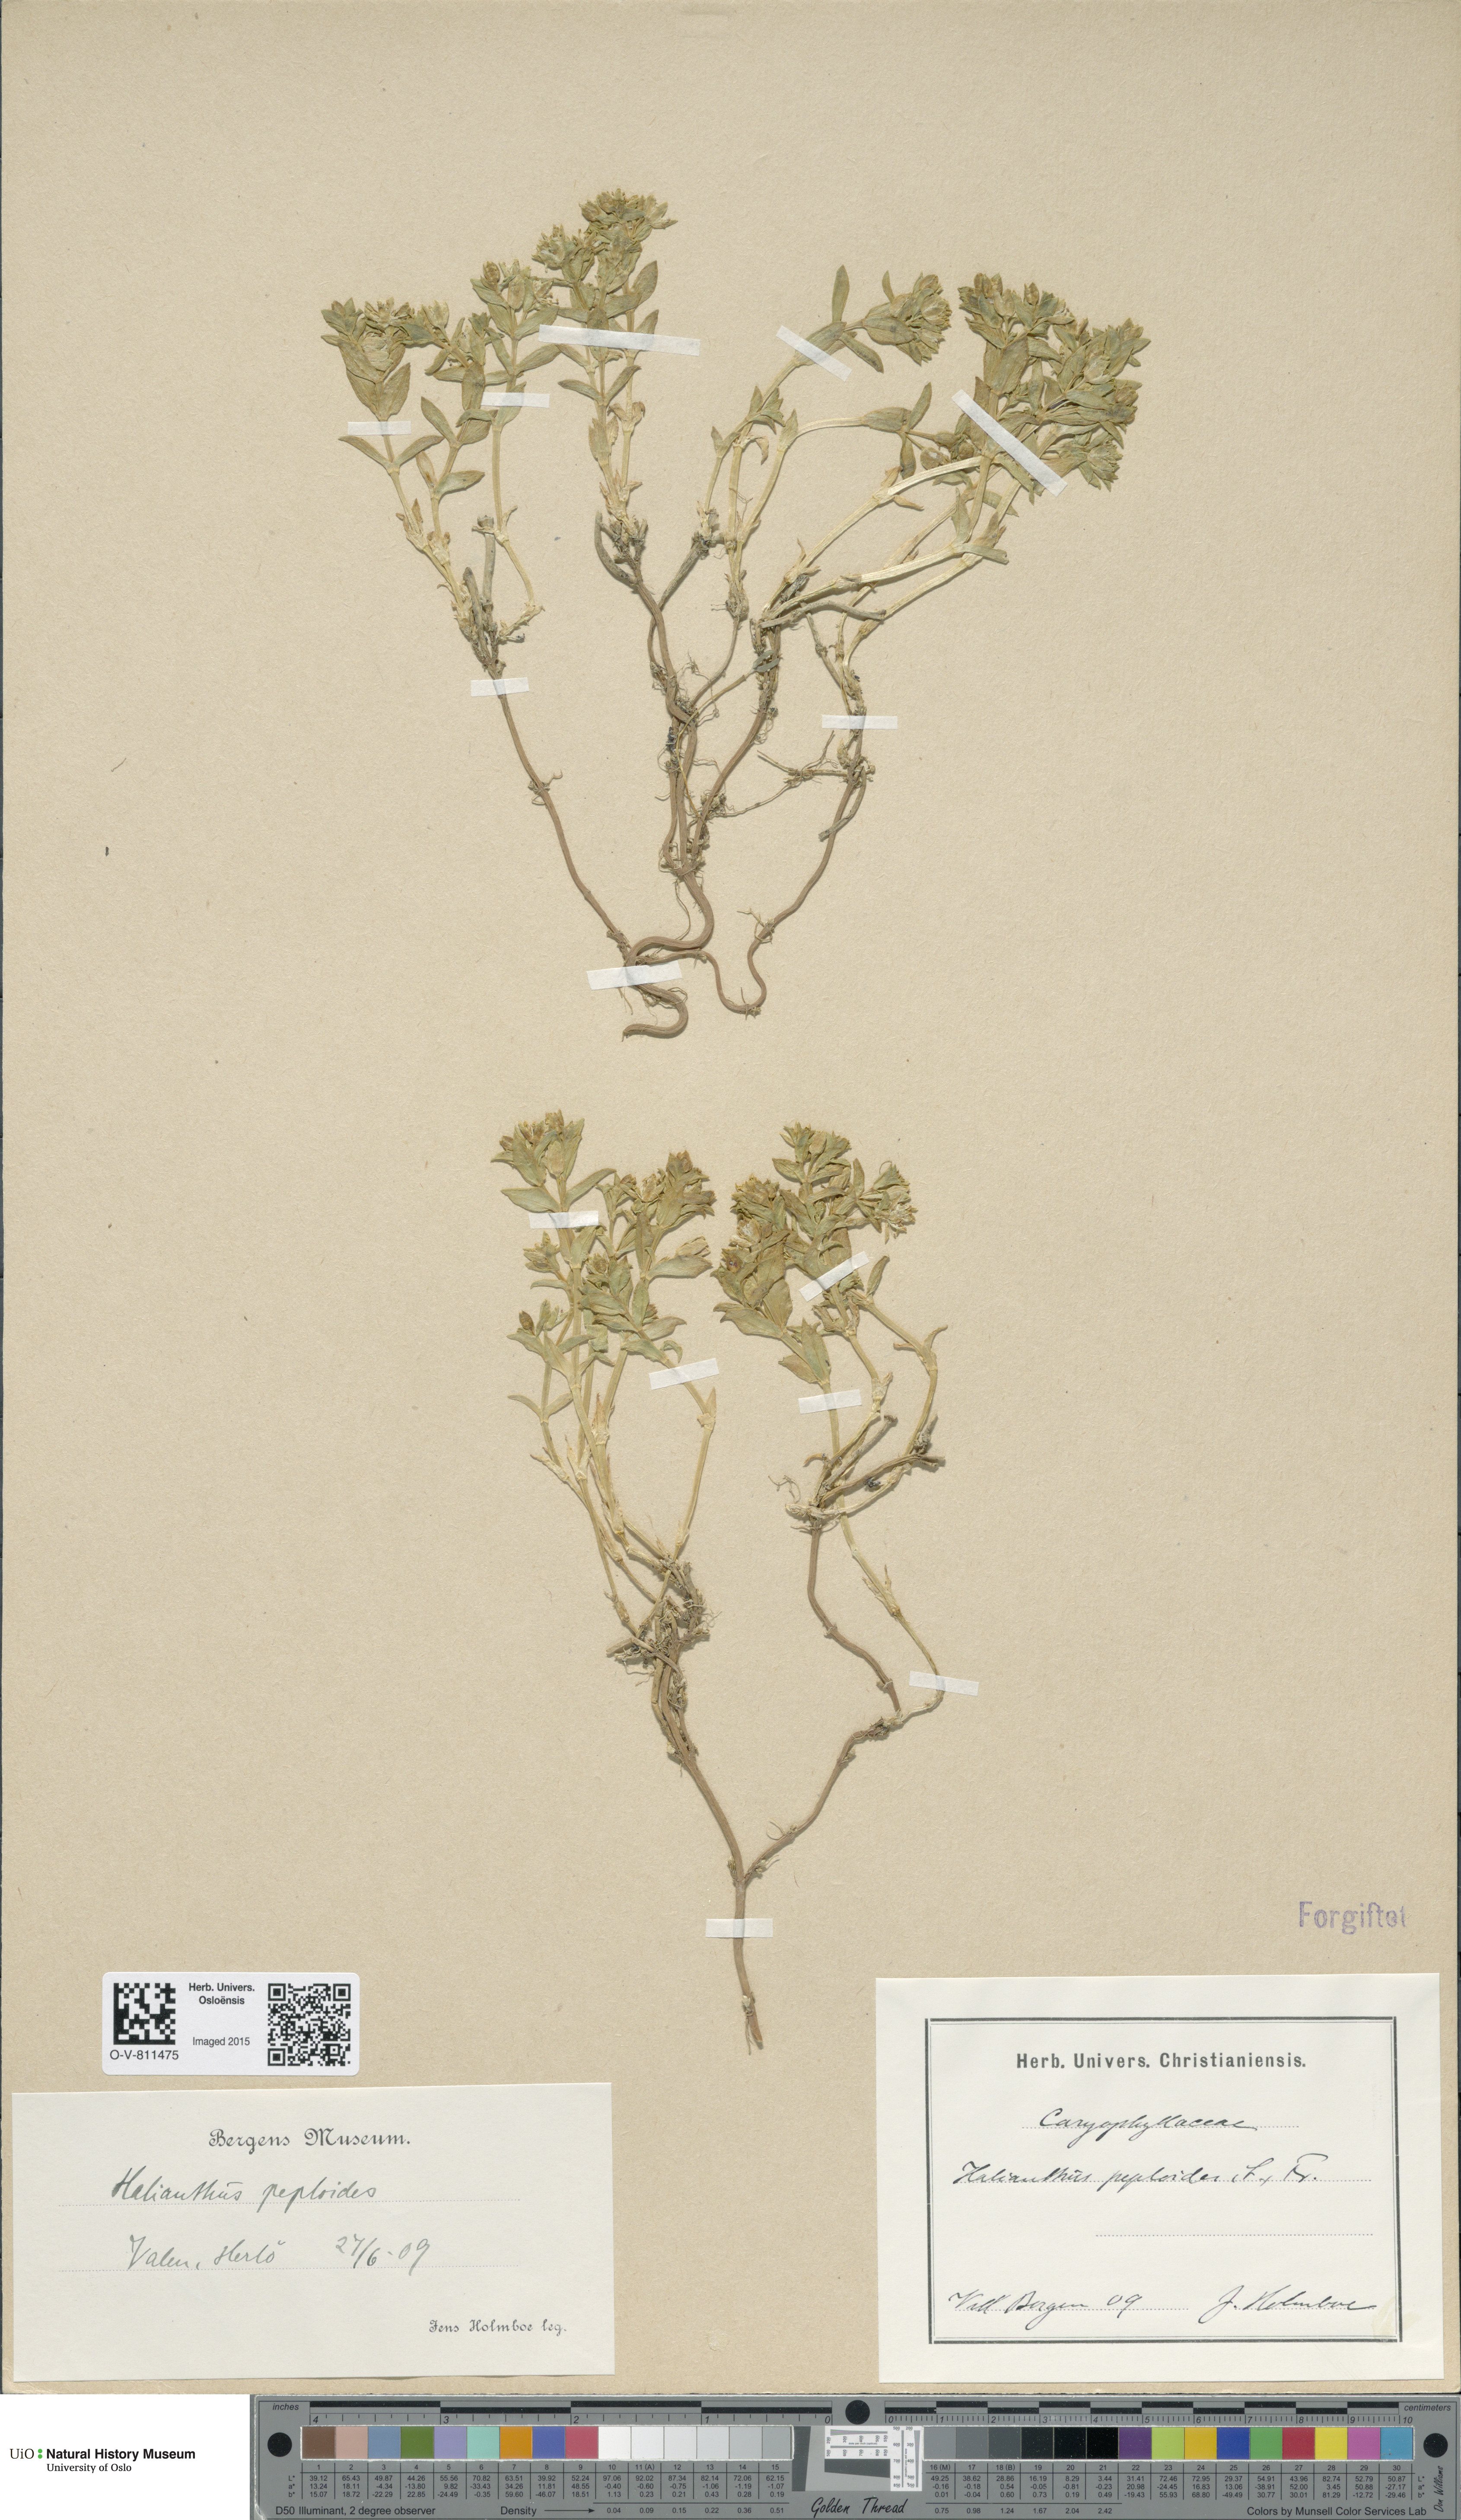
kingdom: Plantae
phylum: Tracheophyta
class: Magnoliopsida
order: Caryophyllales
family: Caryophyllaceae
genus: Honckenya
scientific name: Honckenya peploides
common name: Sea sandwort
